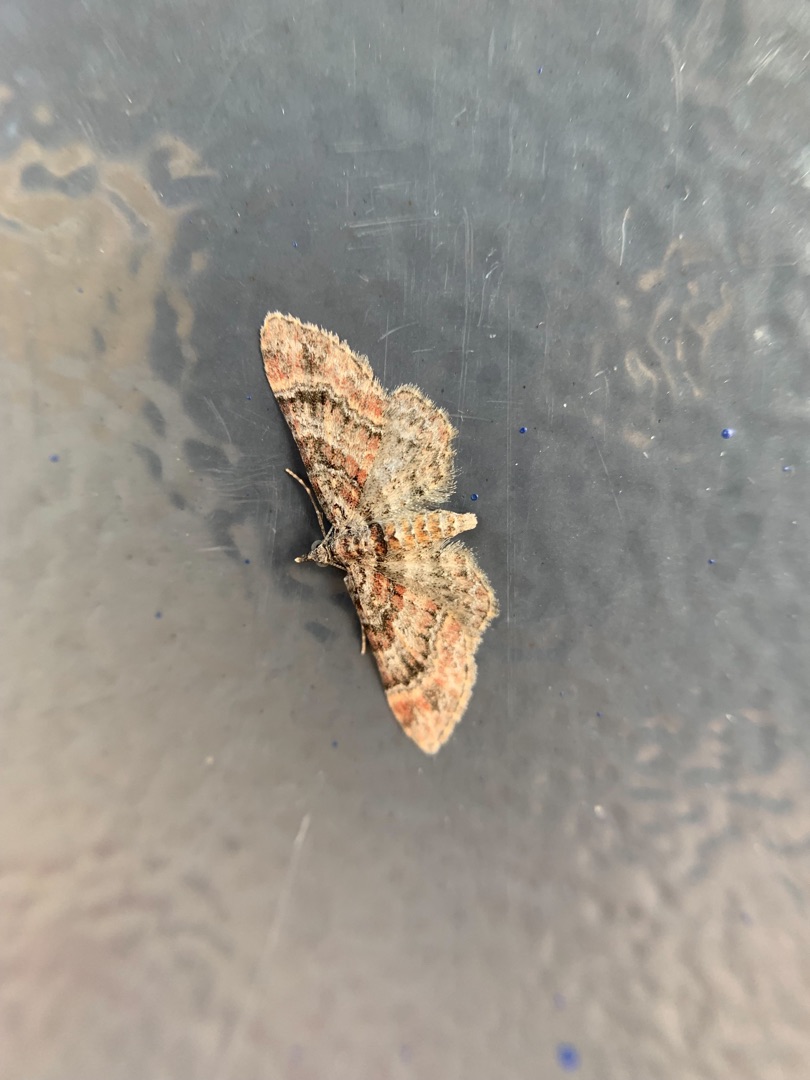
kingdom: Animalia
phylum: Arthropoda
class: Insecta
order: Lepidoptera
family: Geometridae
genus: Gymnoscelis
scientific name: Gymnoscelis rufifasciata
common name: Rødbåndet dværgmåler
